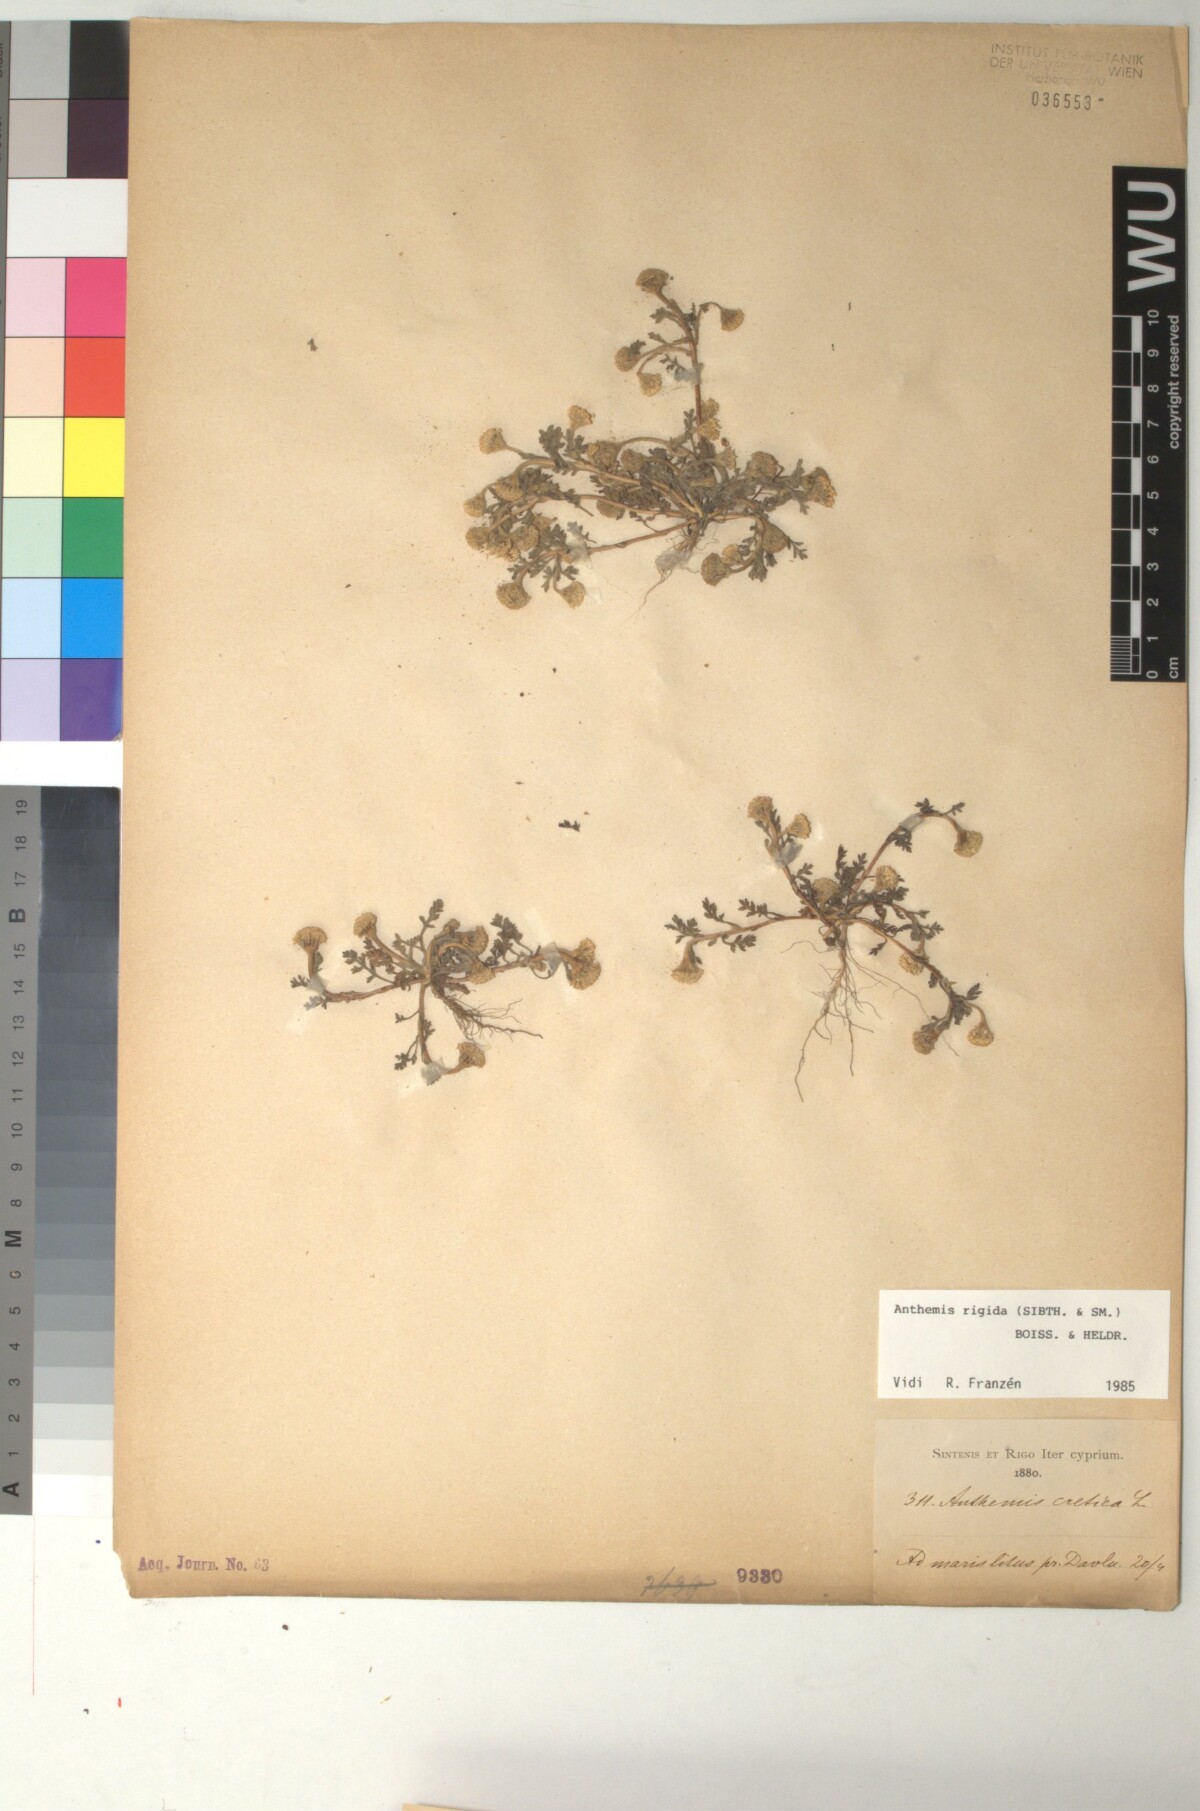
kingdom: Plantae
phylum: Tracheophyta
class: Magnoliopsida
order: Asterales
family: Asteraceae
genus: Anthemis
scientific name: Anthemis rigida
